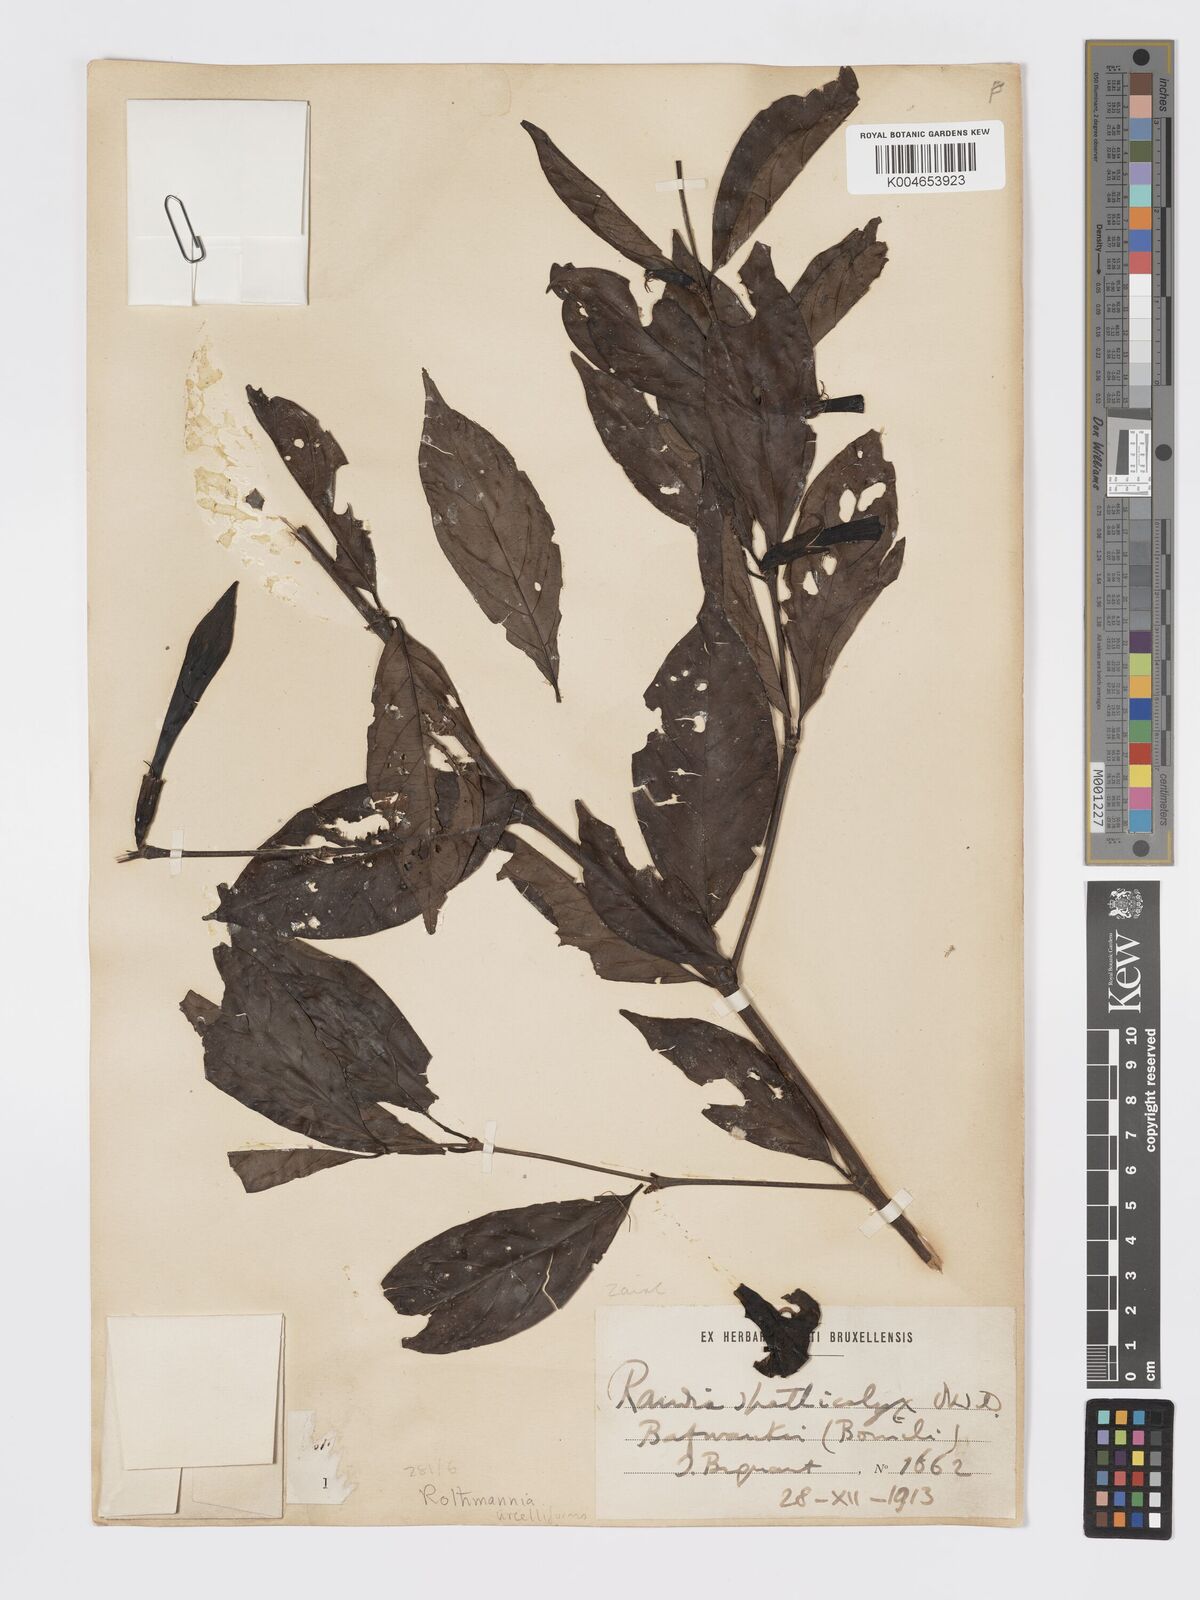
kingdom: Plantae
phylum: Tracheophyta
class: Magnoliopsida
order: Gentianales
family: Rubiaceae
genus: Rothmannia
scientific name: Rothmannia urcelliformis
